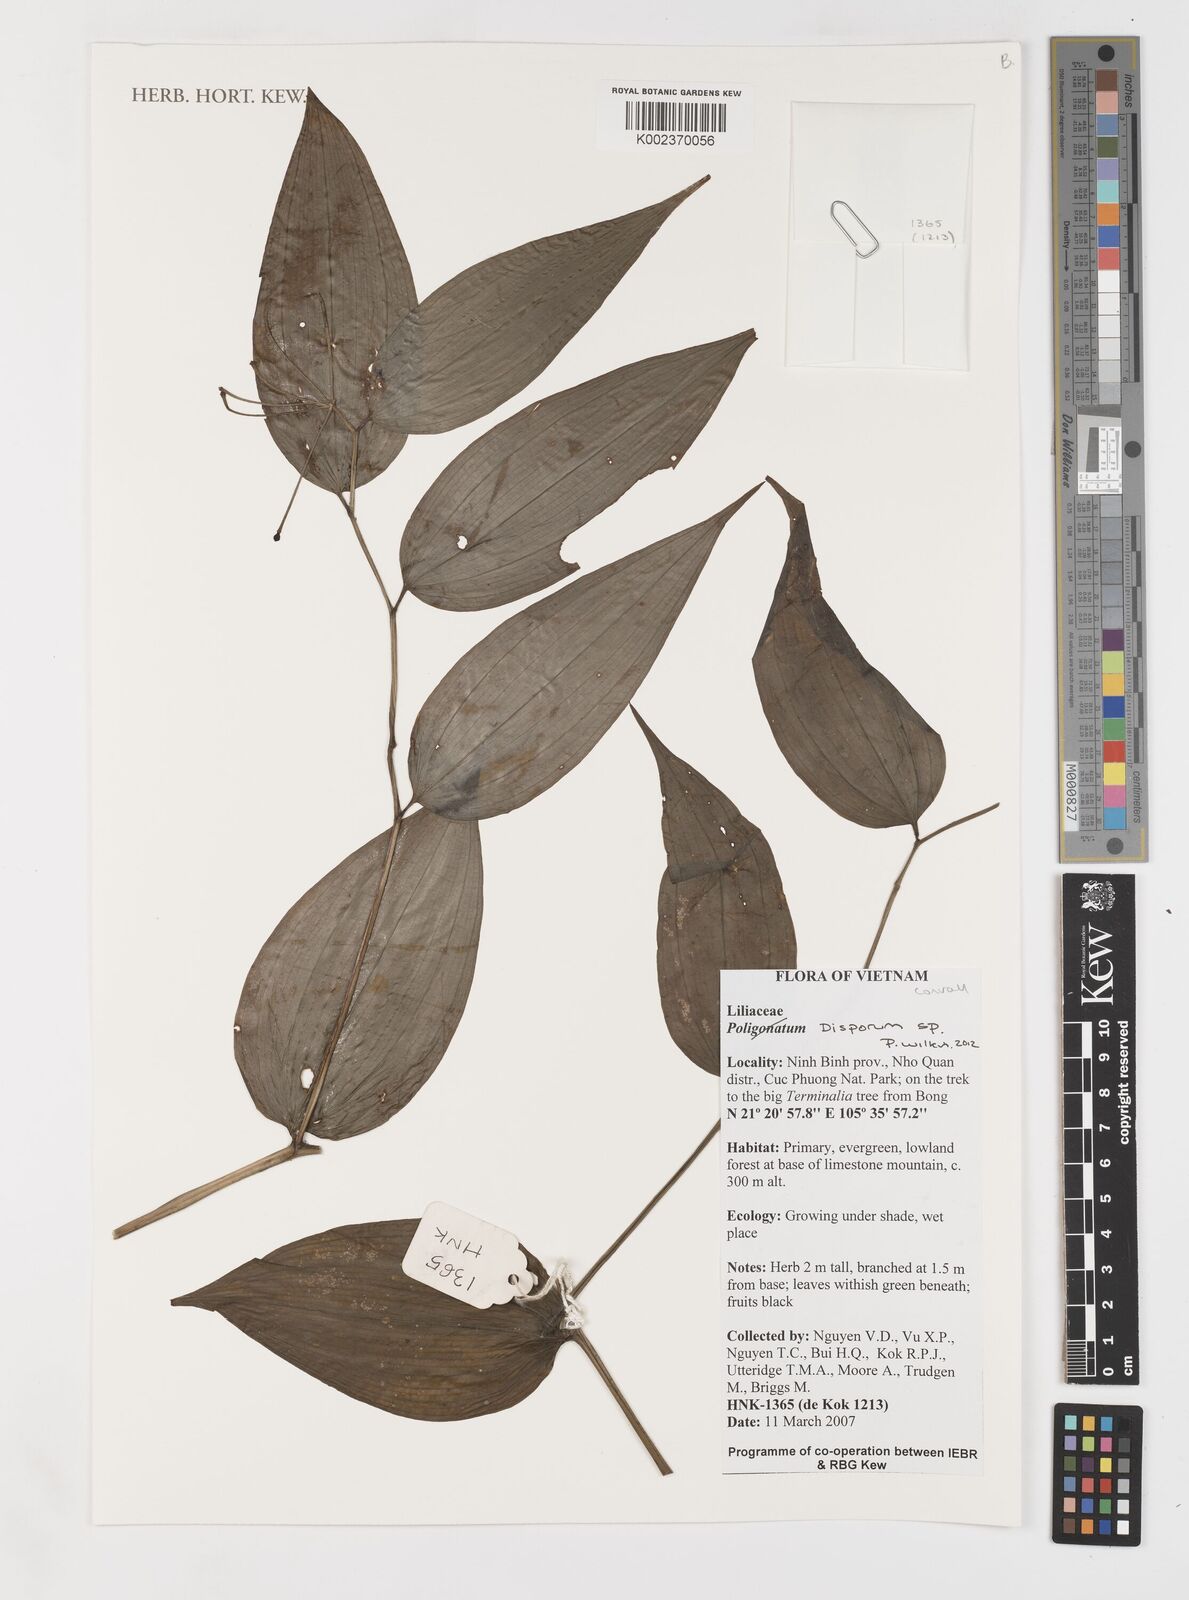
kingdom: Plantae
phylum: Tracheophyta
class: Liliopsida
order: Liliales
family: Colchicaceae
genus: Disporum
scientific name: Disporum
